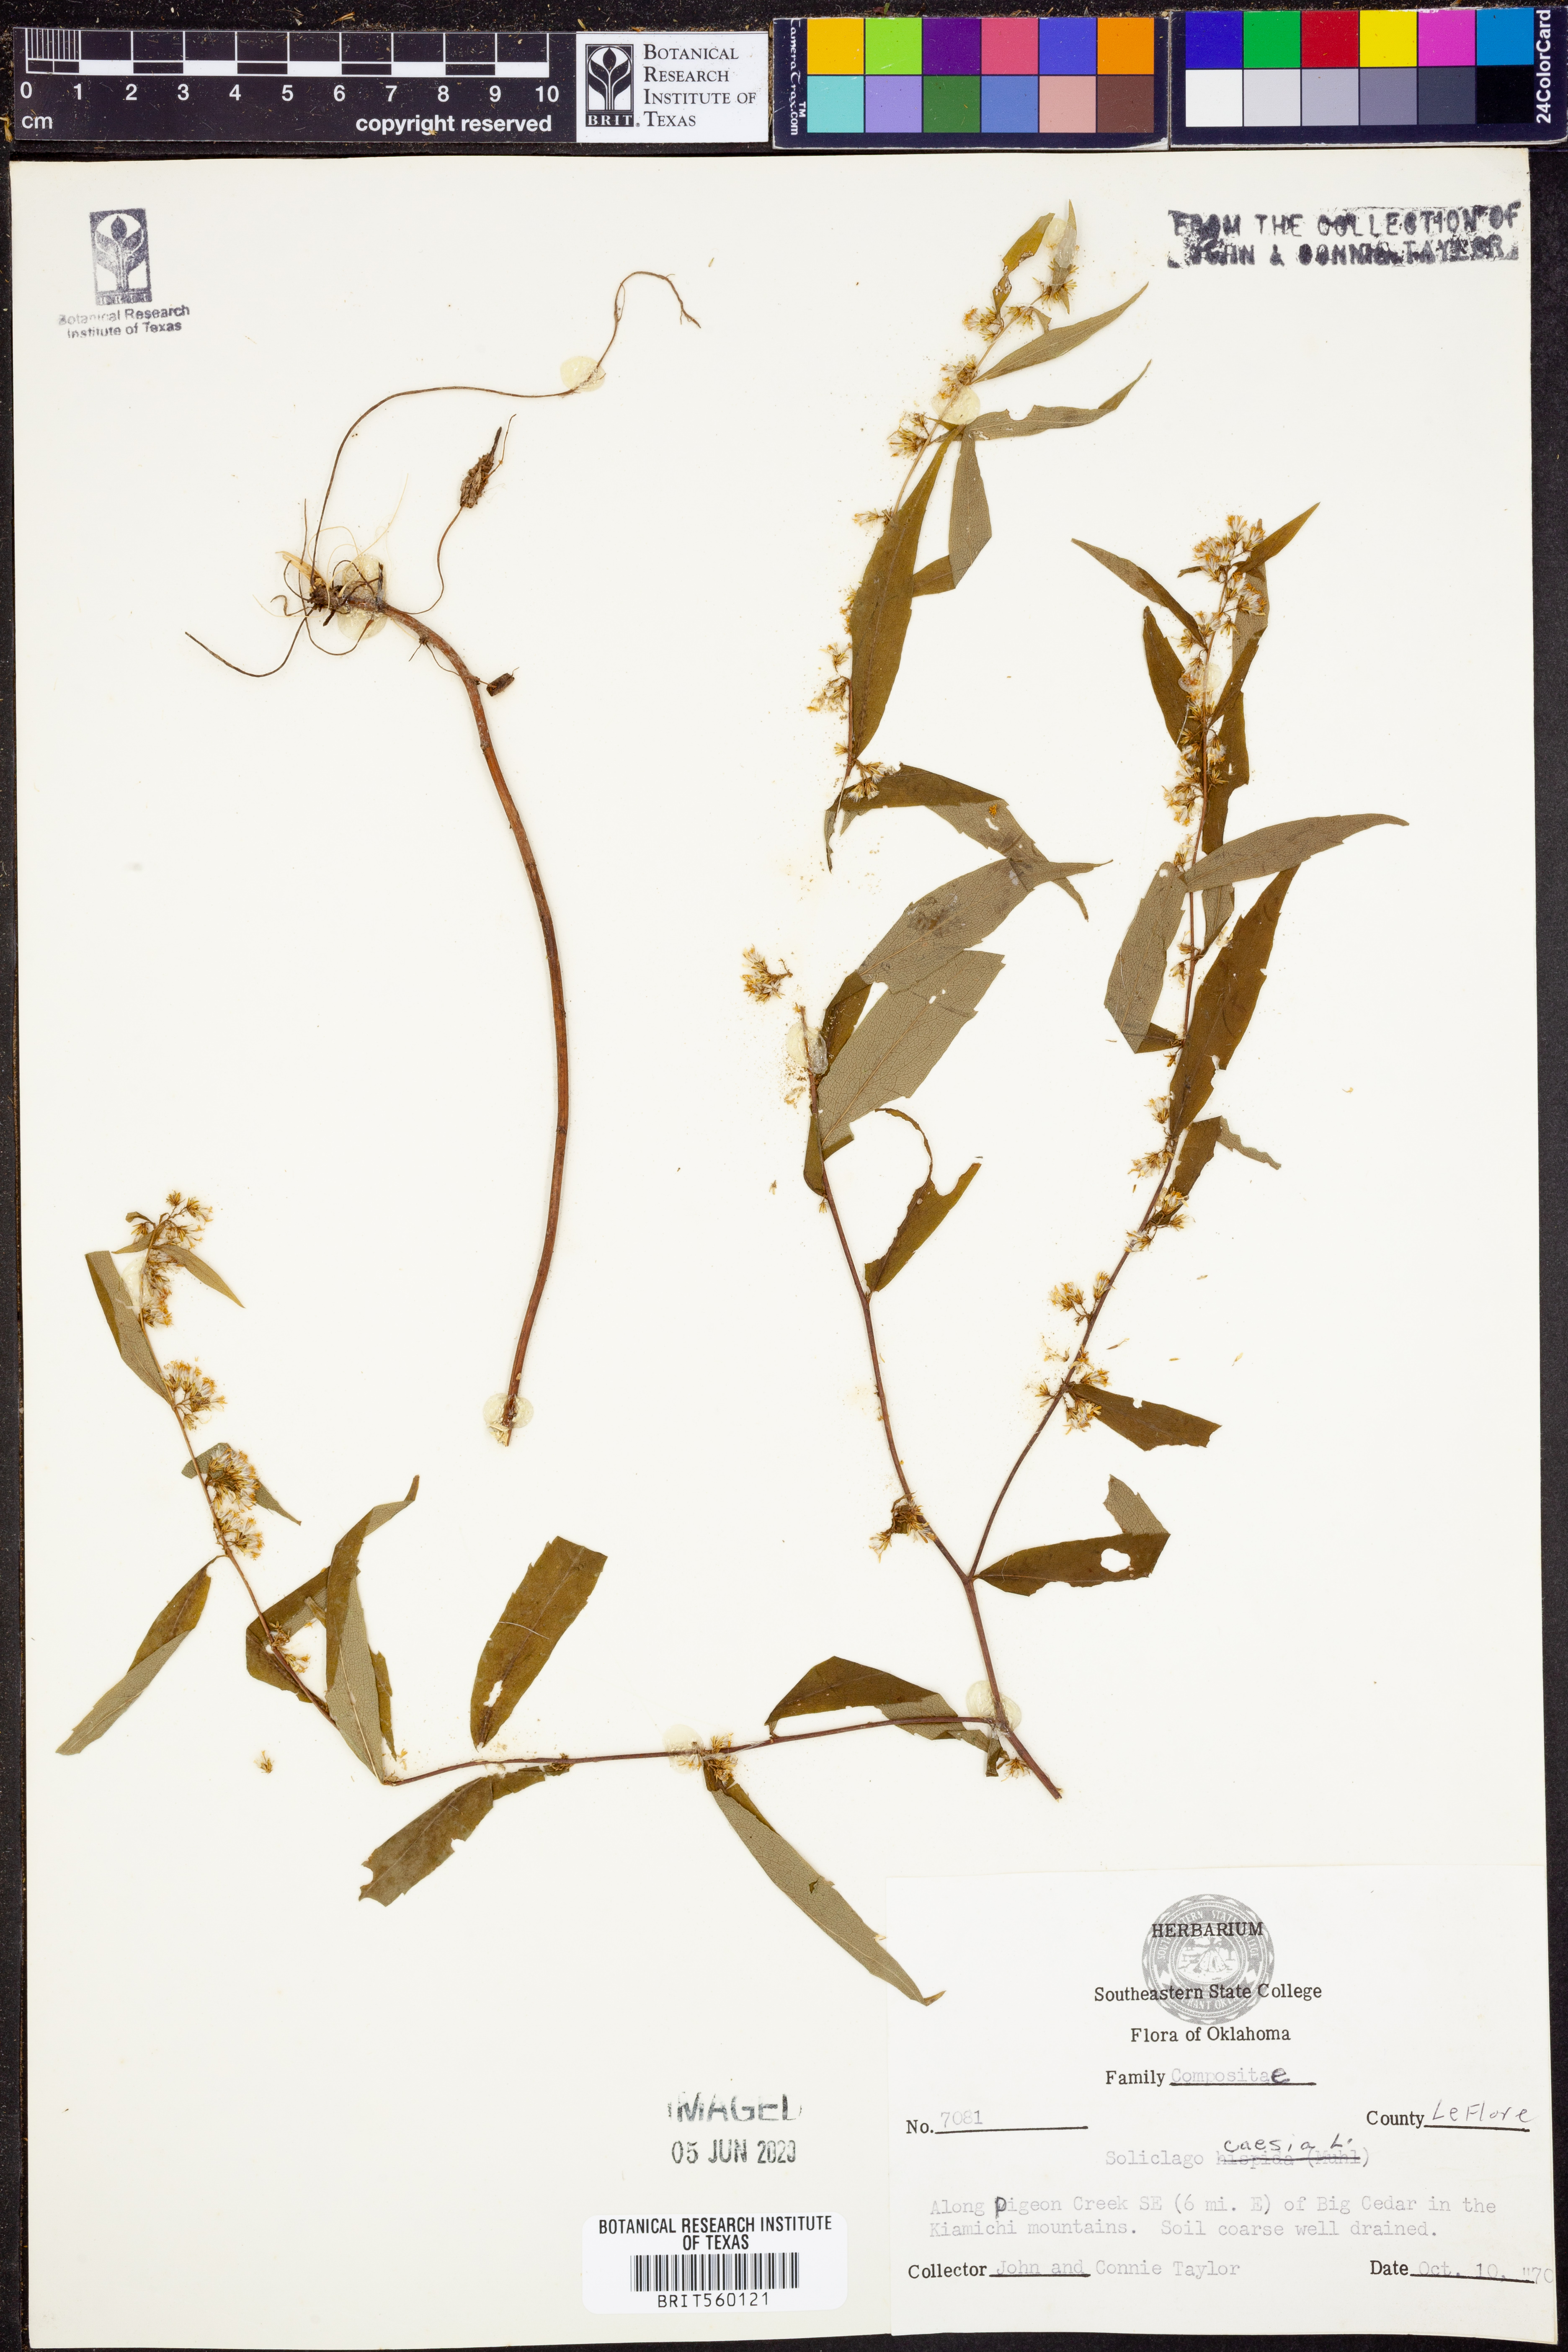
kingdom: Plantae
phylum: Tracheophyta
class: Magnoliopsida
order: Asterales
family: Asteraceae
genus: Solidago
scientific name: Solidago caesia
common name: Woodland goldenrod
